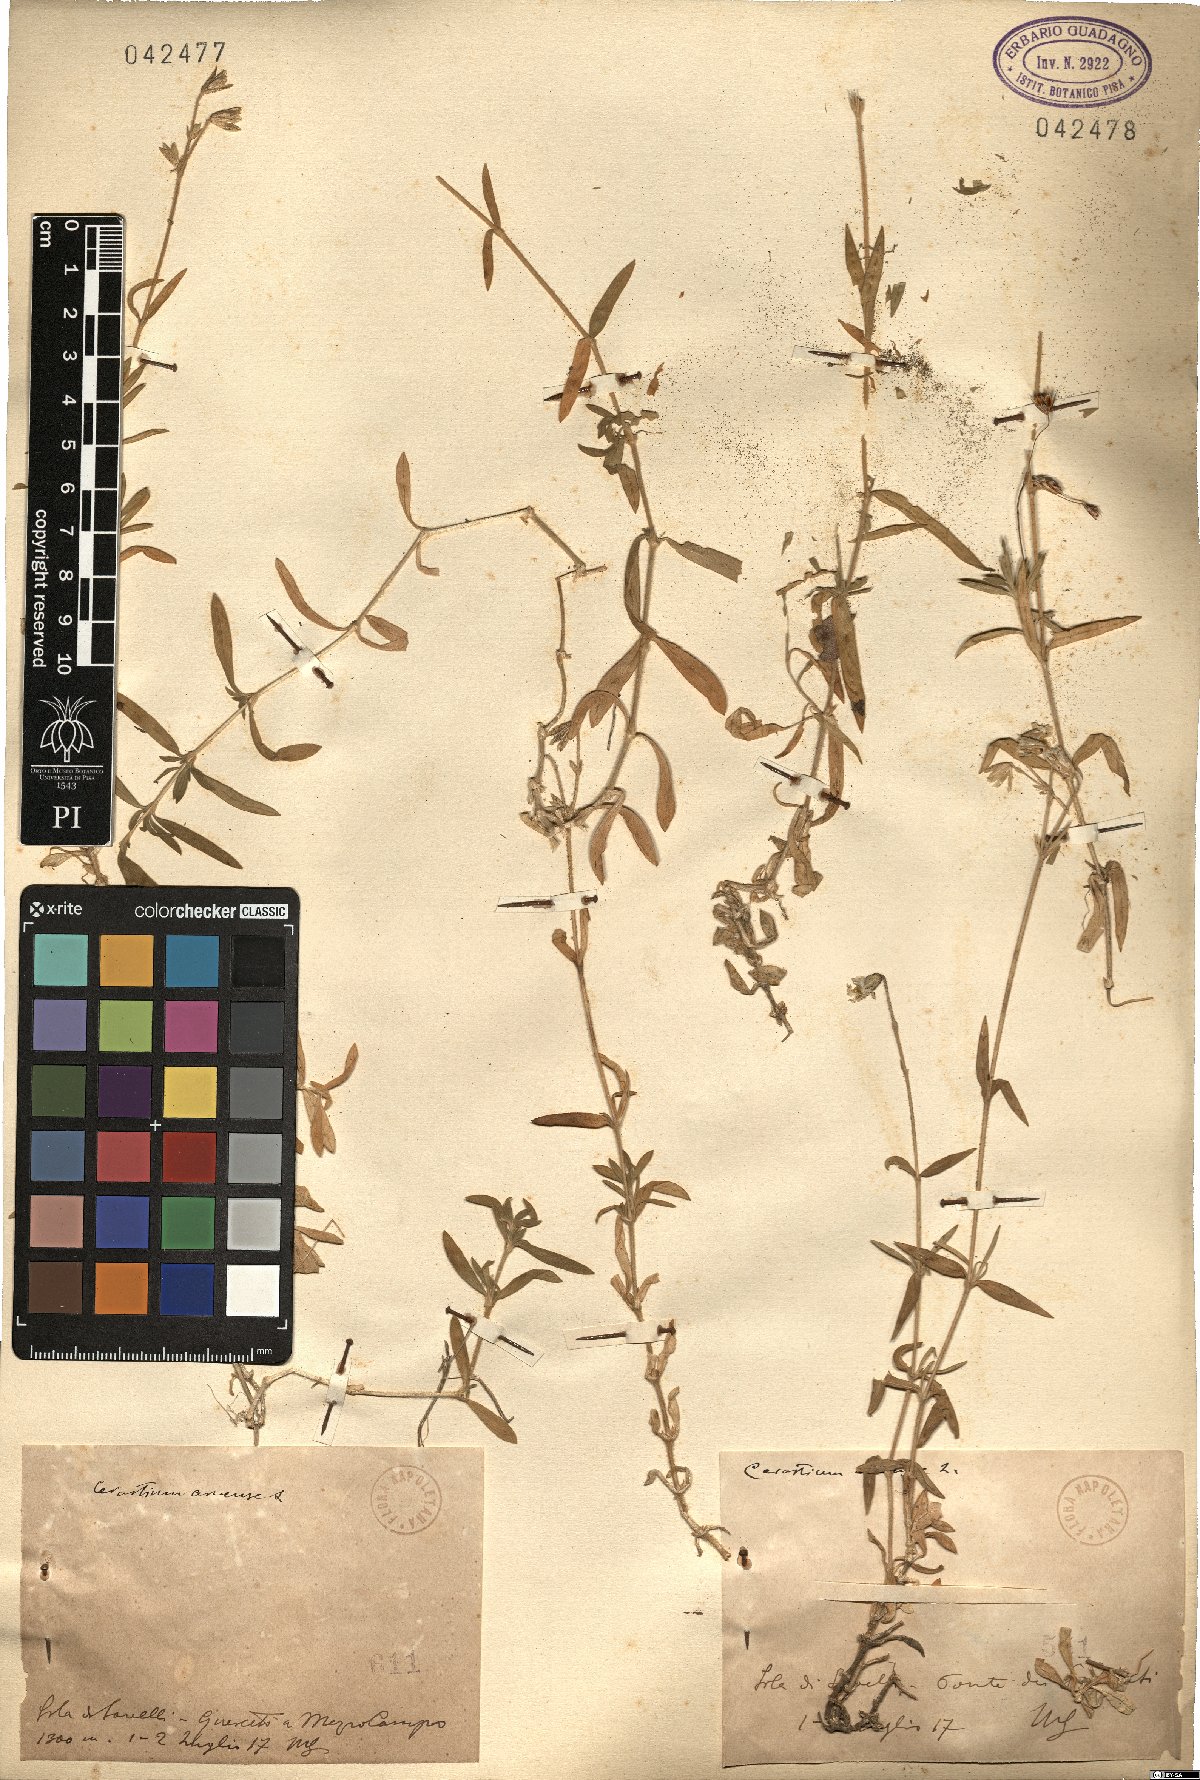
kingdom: Plantae
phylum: Tracheophyta
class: Magnoliopsida
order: Caryophyllales
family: Caryophyllaceae
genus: Cerastium
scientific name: Cerastium arvense
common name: Field mouse-ear
